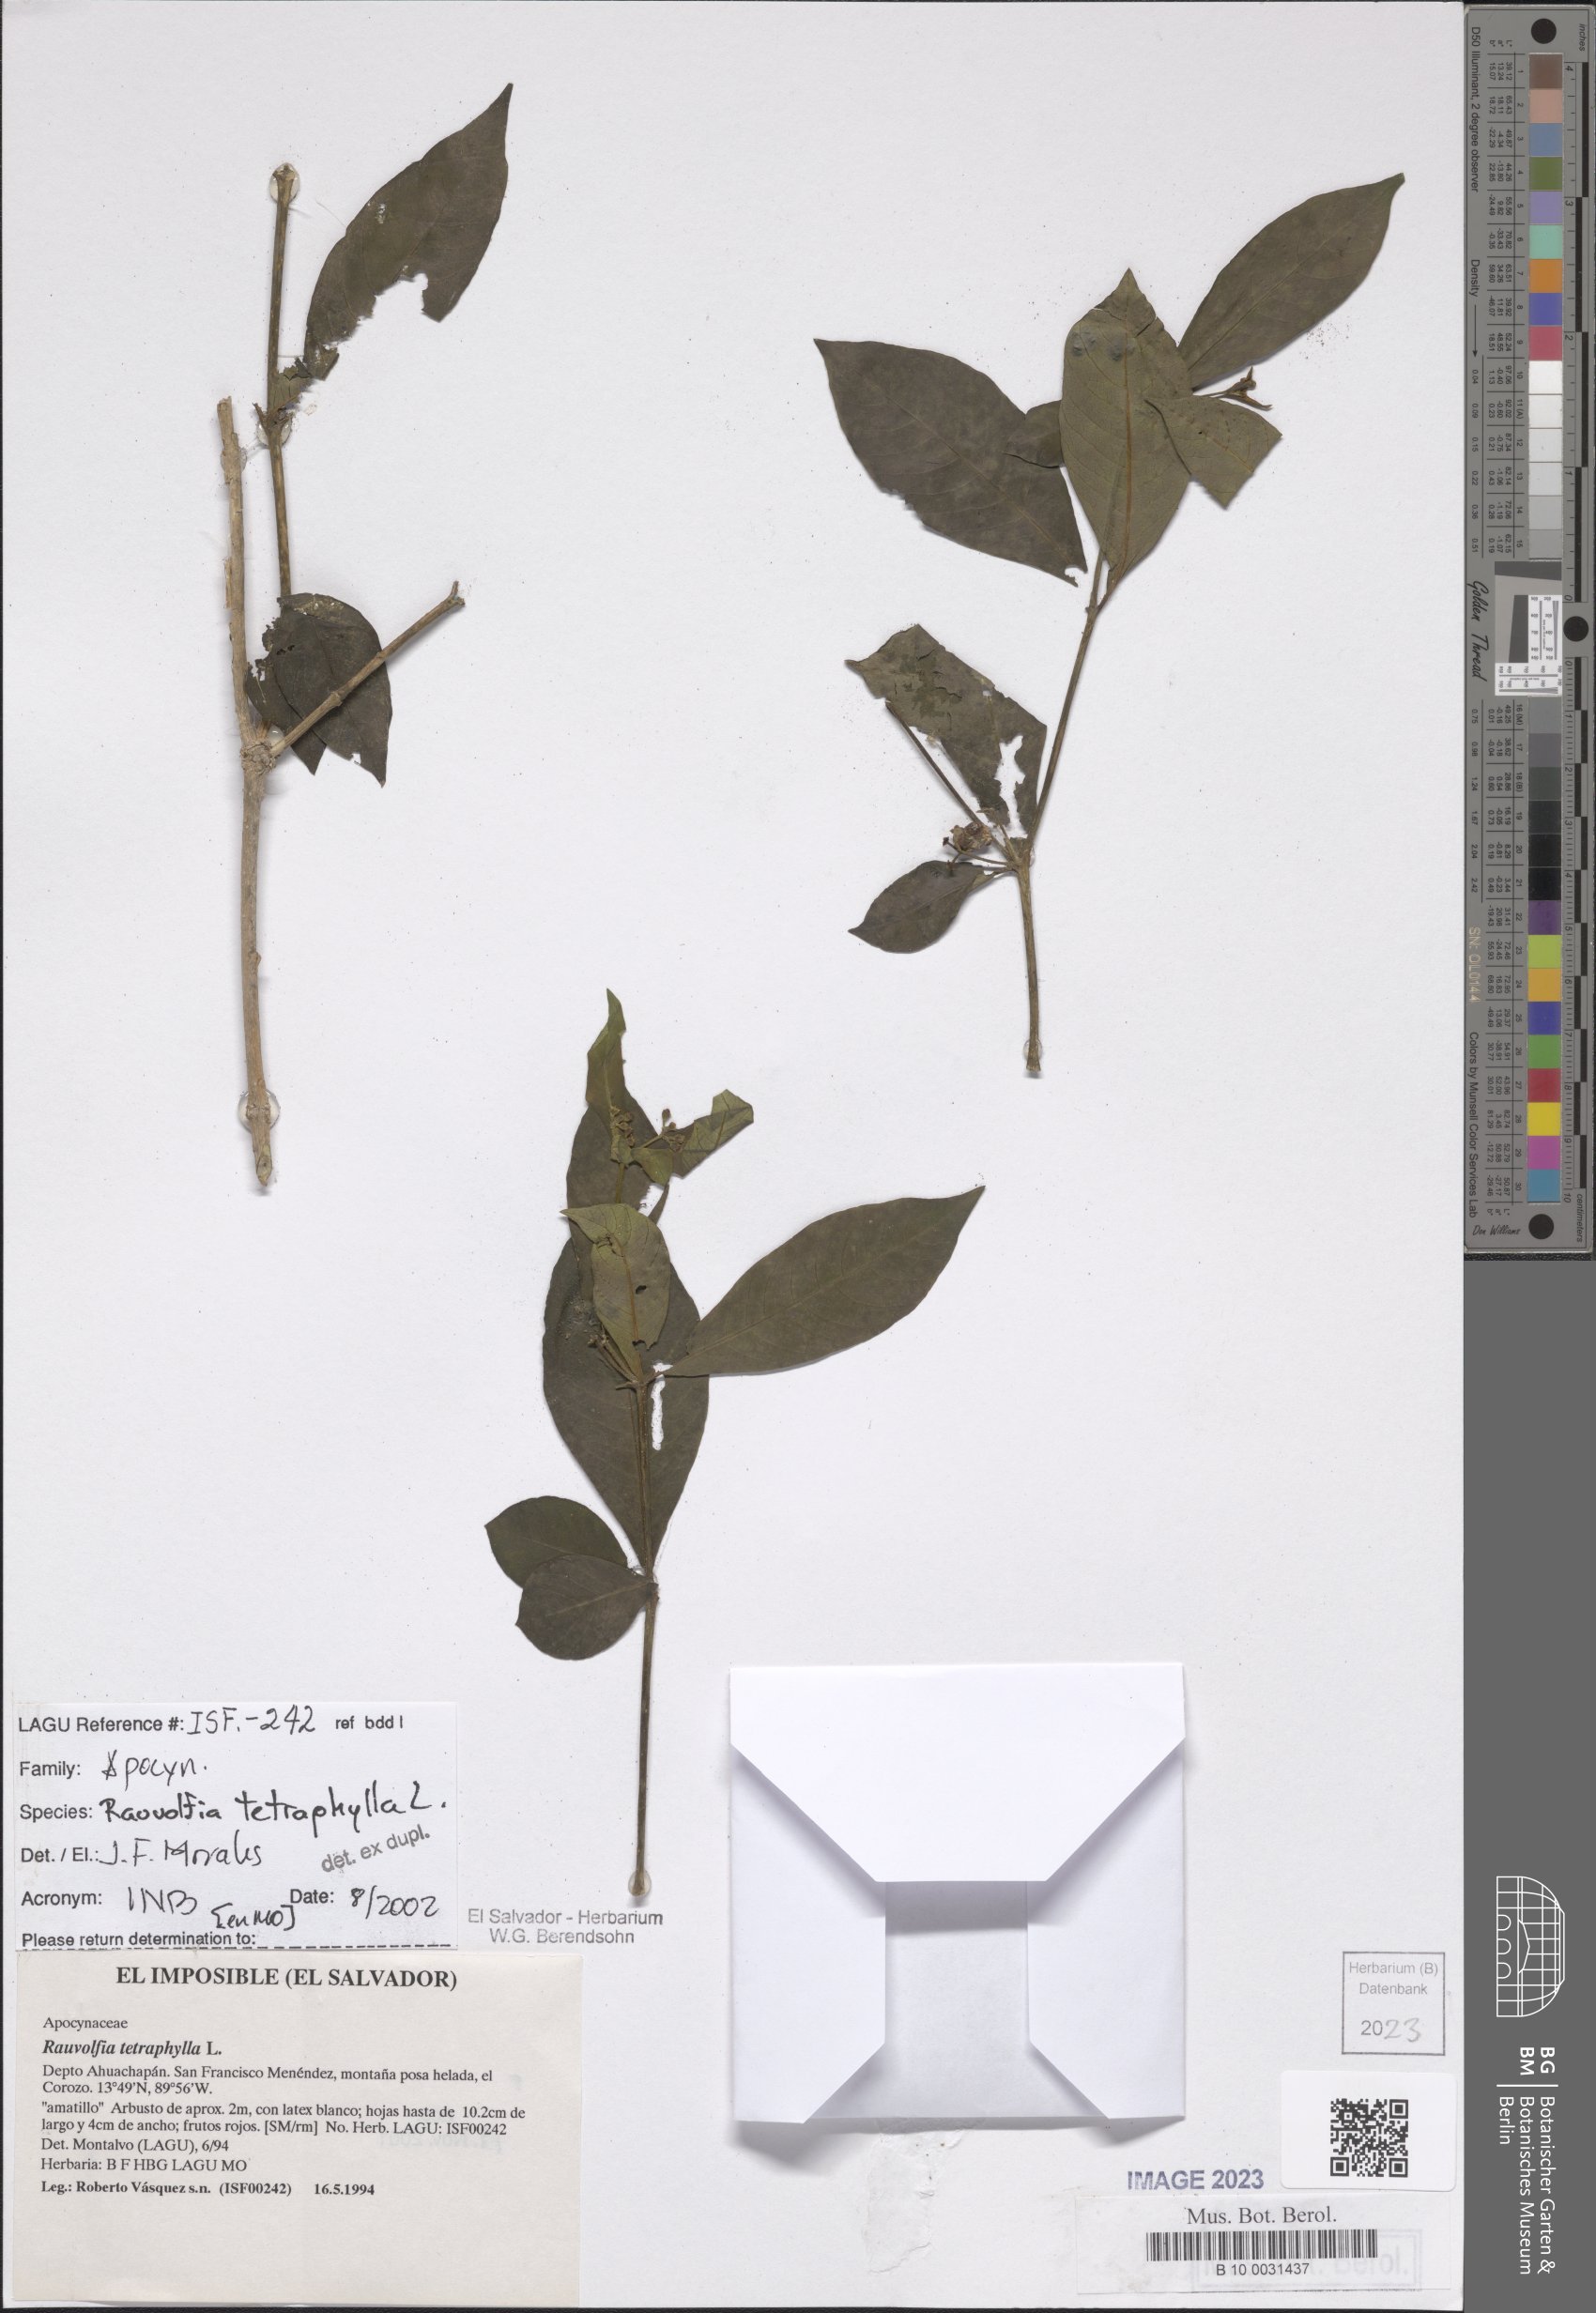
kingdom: Plantae
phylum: Tracheophyta
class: Magnoliopsida
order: Gentianales
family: Apocynaceae
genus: Rauvolfia
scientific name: Rauvolfia tetraphylla
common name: Four-leaf devil-pepper
